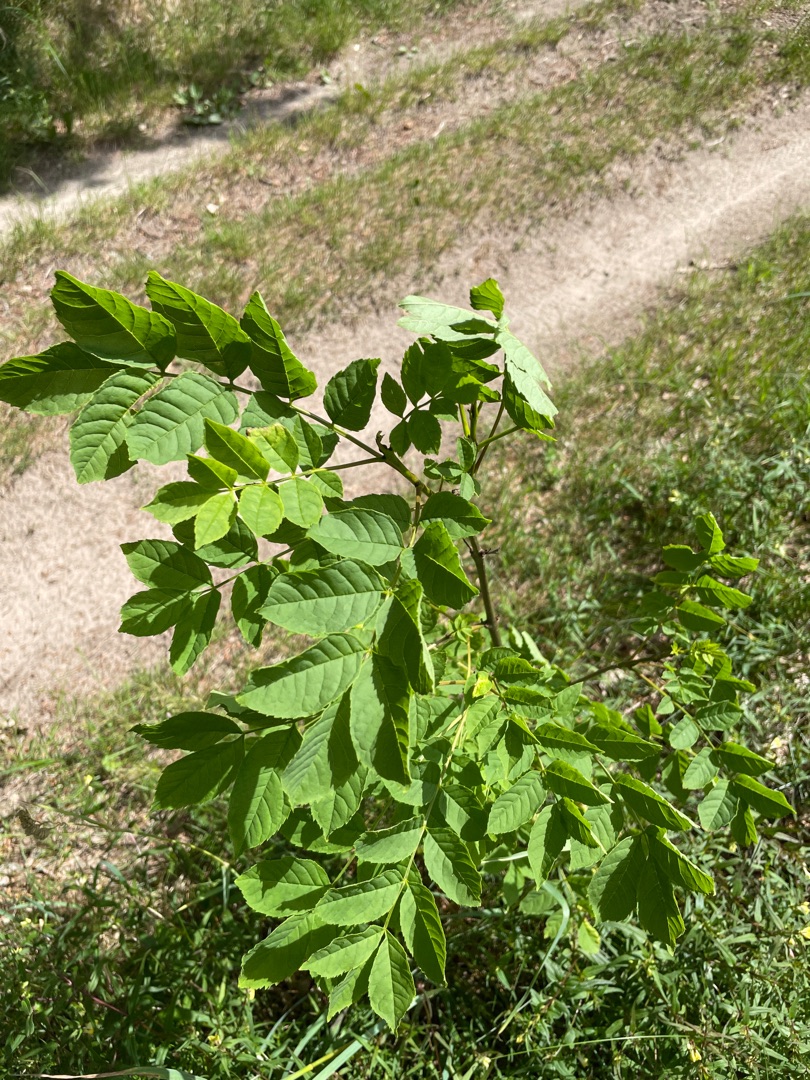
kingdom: Plantae
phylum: Tracheophyta
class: Magnoliopsida
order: Lamiales
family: Oleaceae
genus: Fraxinus
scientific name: Fraxinus excelsior
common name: Ask
